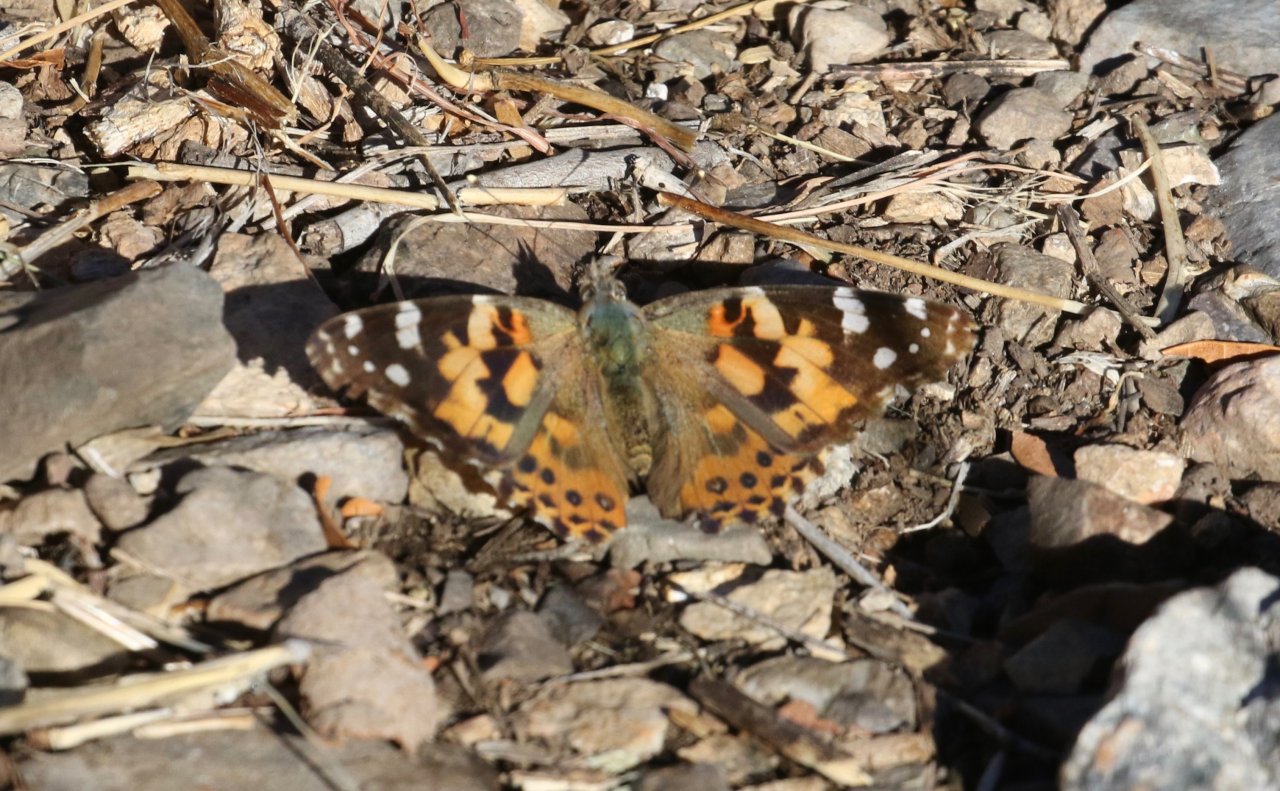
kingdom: Animalia
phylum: Arthropoda
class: Insecta
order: Lepidoptera
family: Nymphalidae
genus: Vanessa
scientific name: Vanessa cardui
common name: Painted Lady
